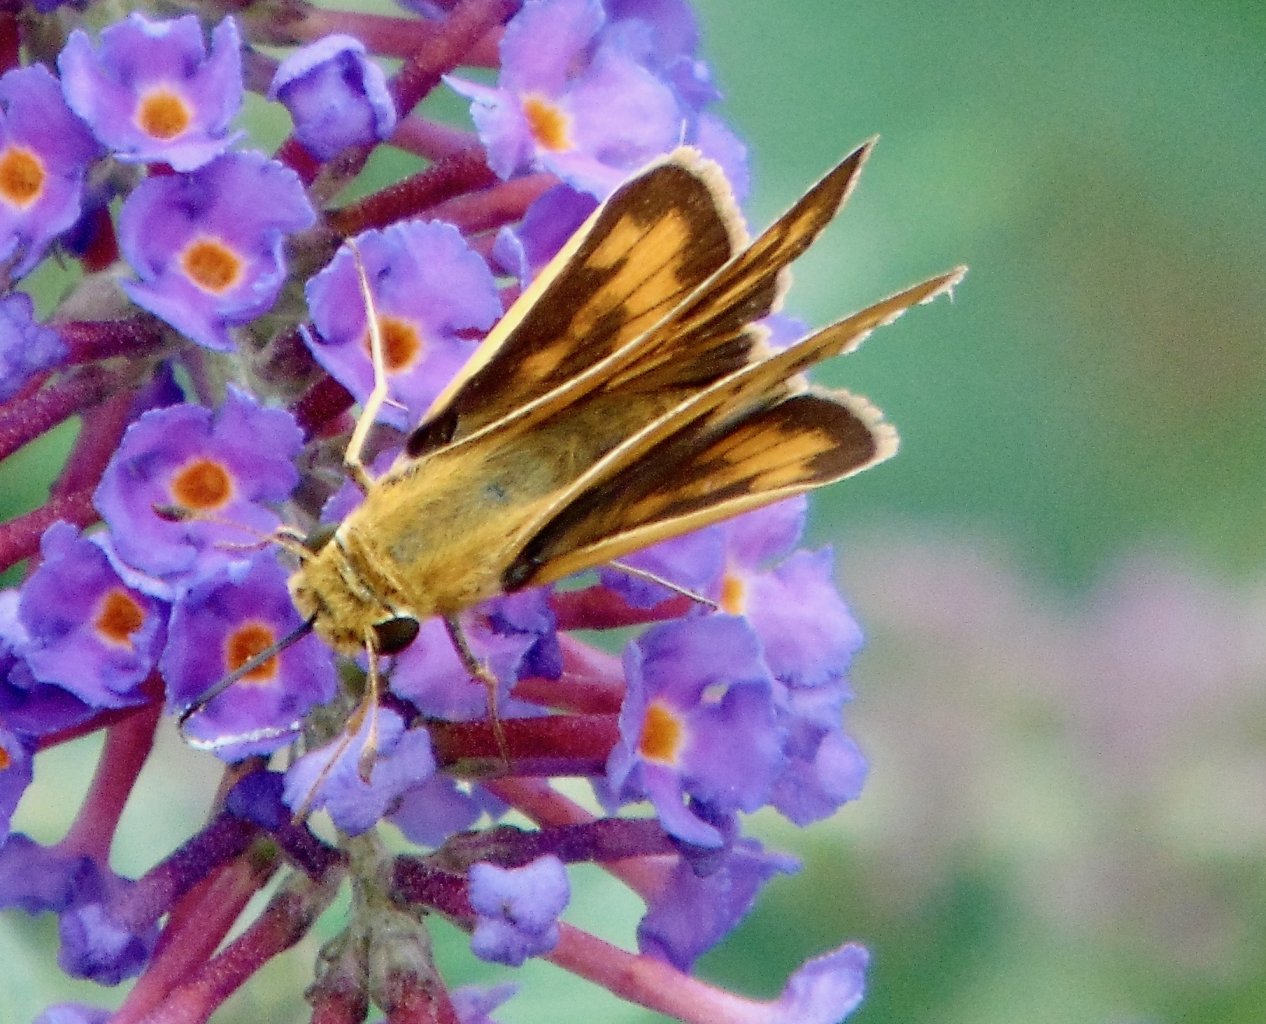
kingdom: Animalia
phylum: Arthropoda
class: Insecta
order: Lepidoptera
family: Hesperiidae
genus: Hylephila
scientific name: Hylephila phyleus
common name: Fiery Skipper
